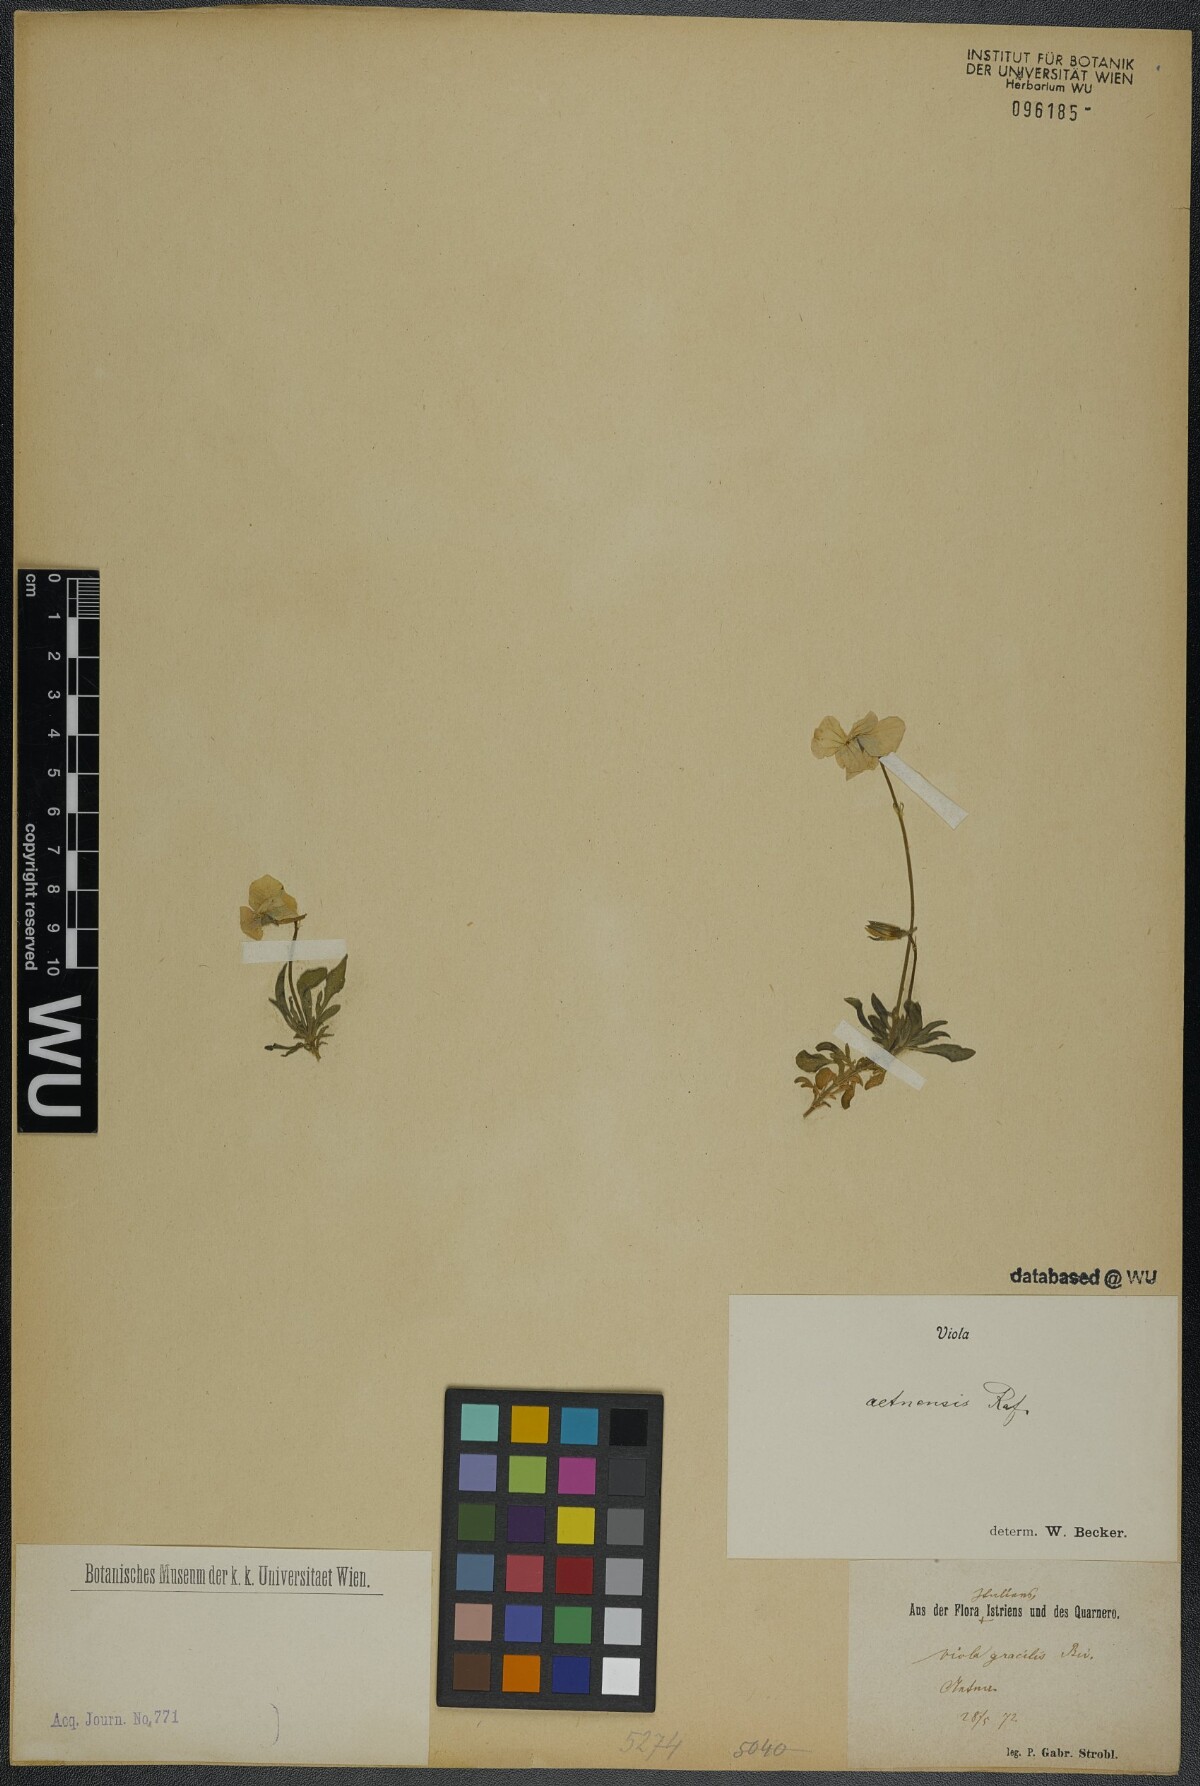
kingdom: Plantae
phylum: Tracheophyta
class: Magnoliopsida
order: Malpighiales
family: Violaceae
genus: Viola
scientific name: Viola aethnensis
